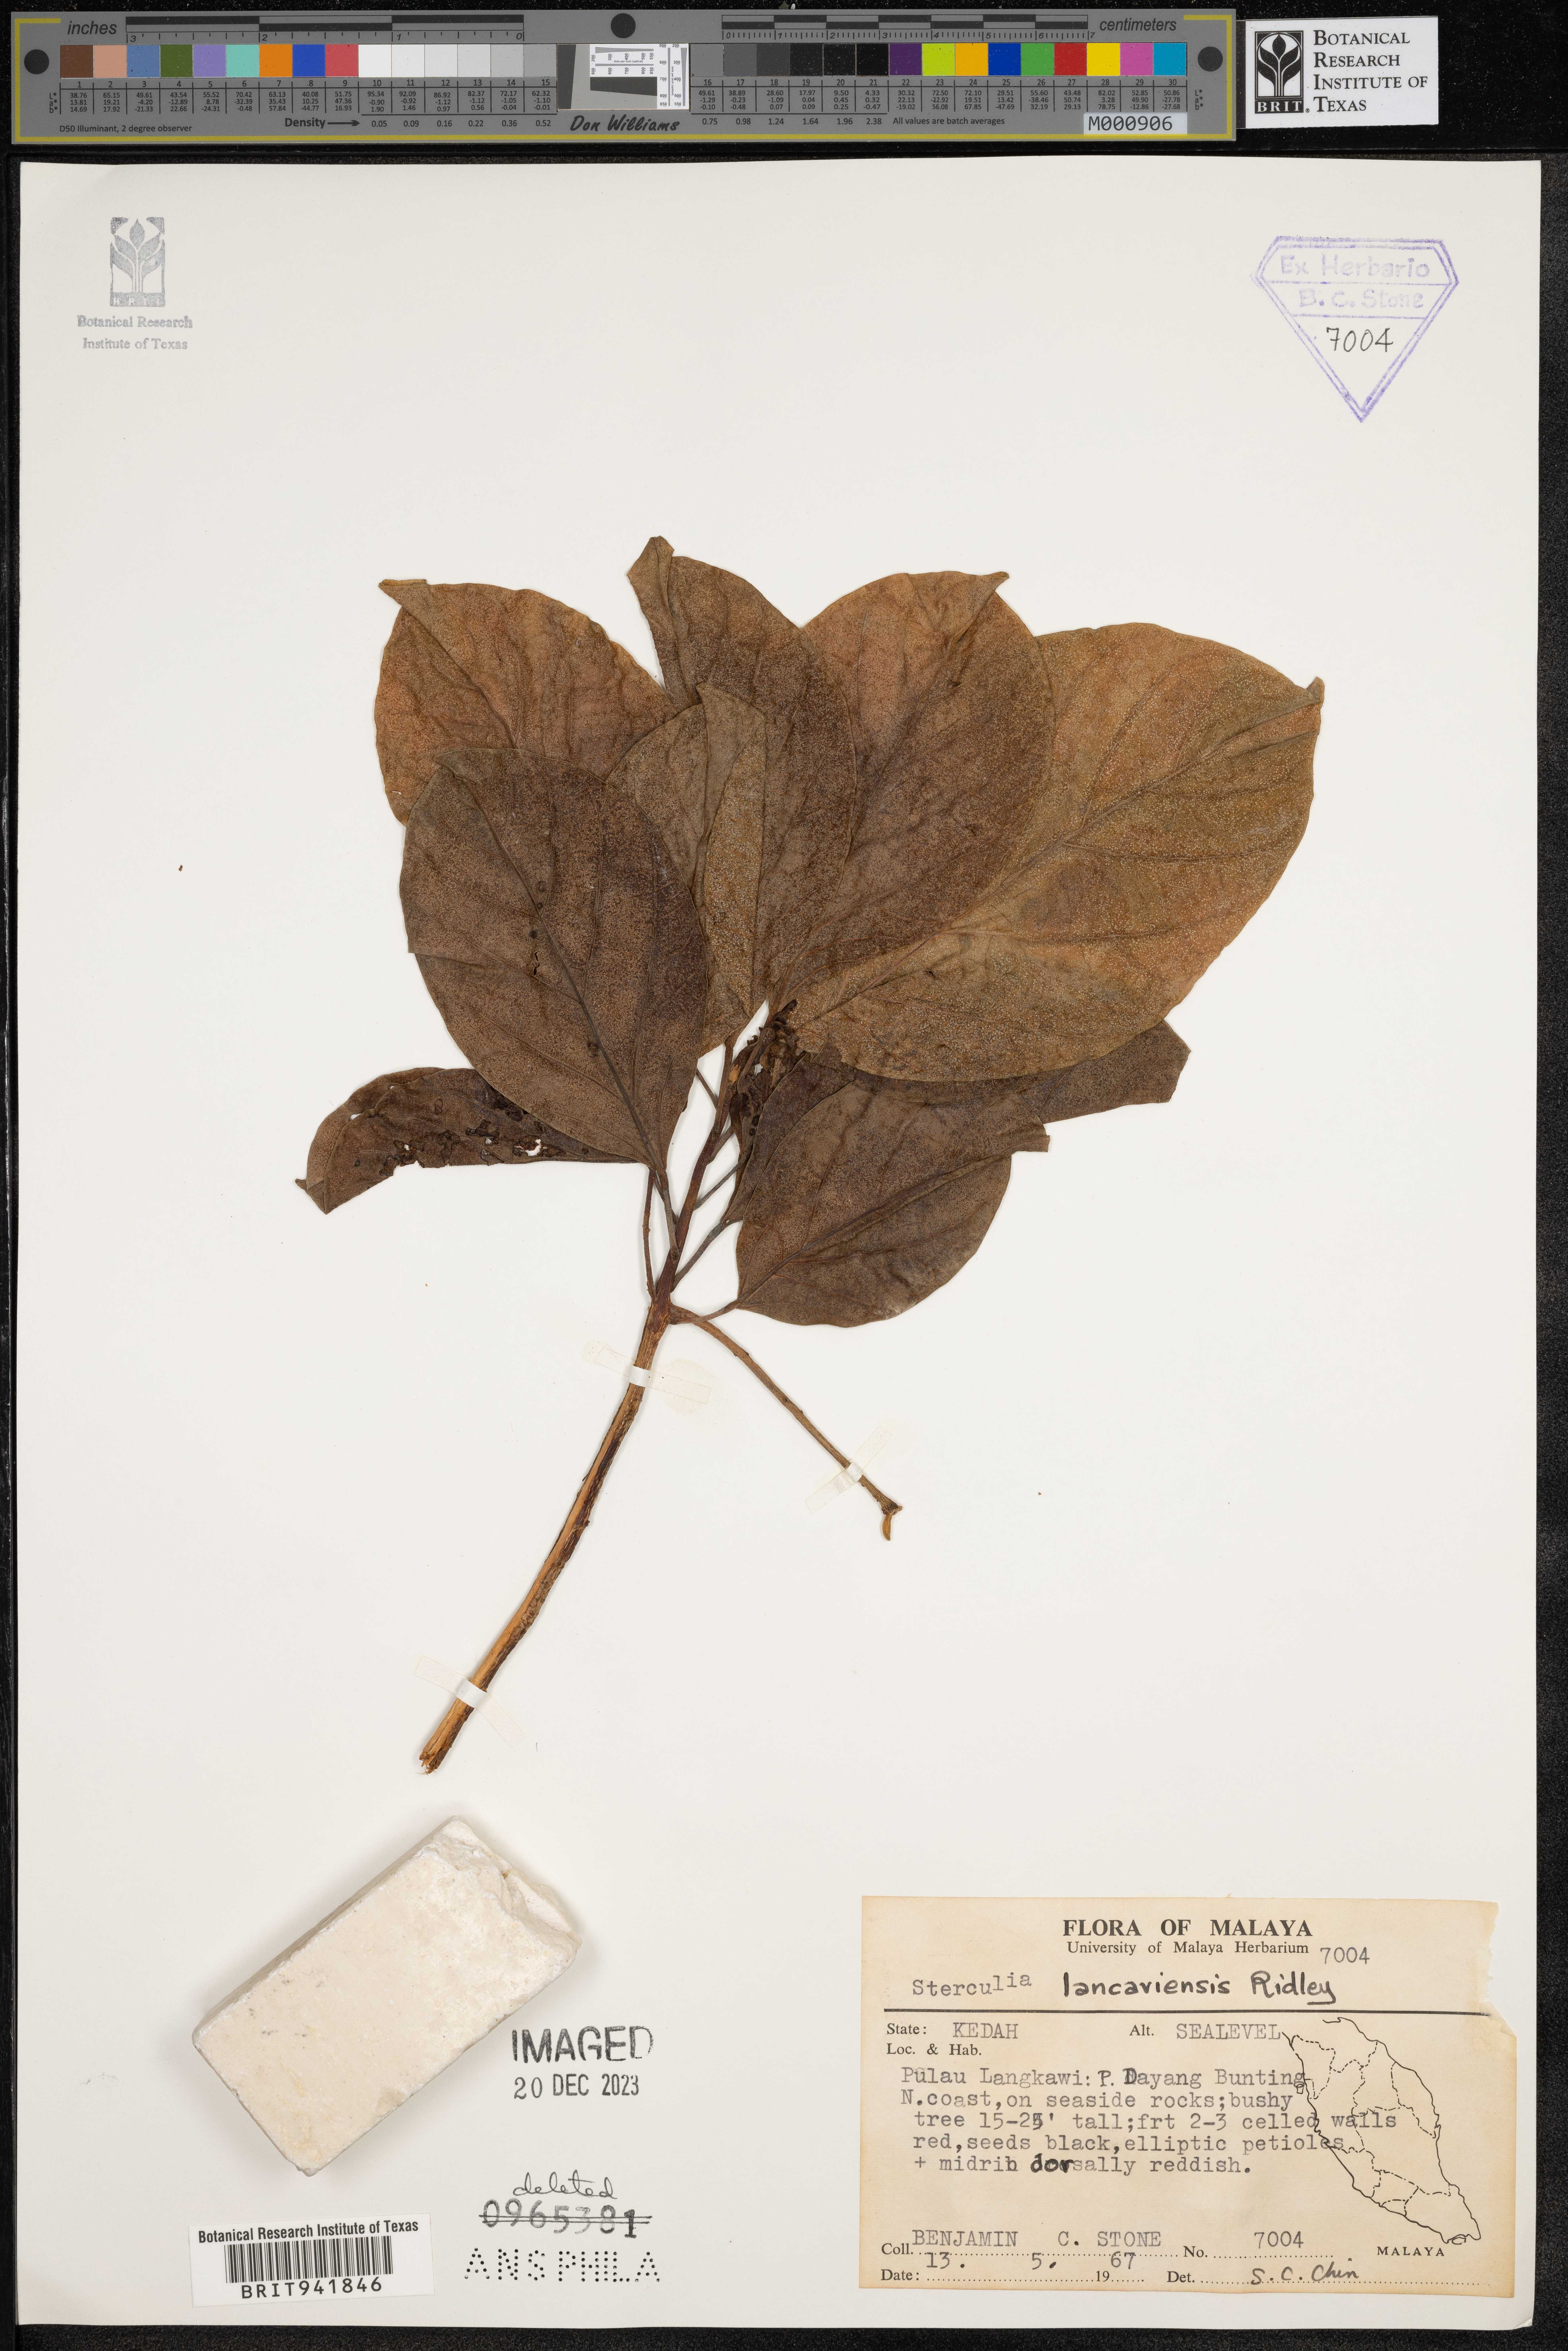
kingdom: Plantae
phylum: Tracheophyta
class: Magnoliopsida
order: Malvales
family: Malvaceae
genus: Sterculia
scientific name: Sterculia
